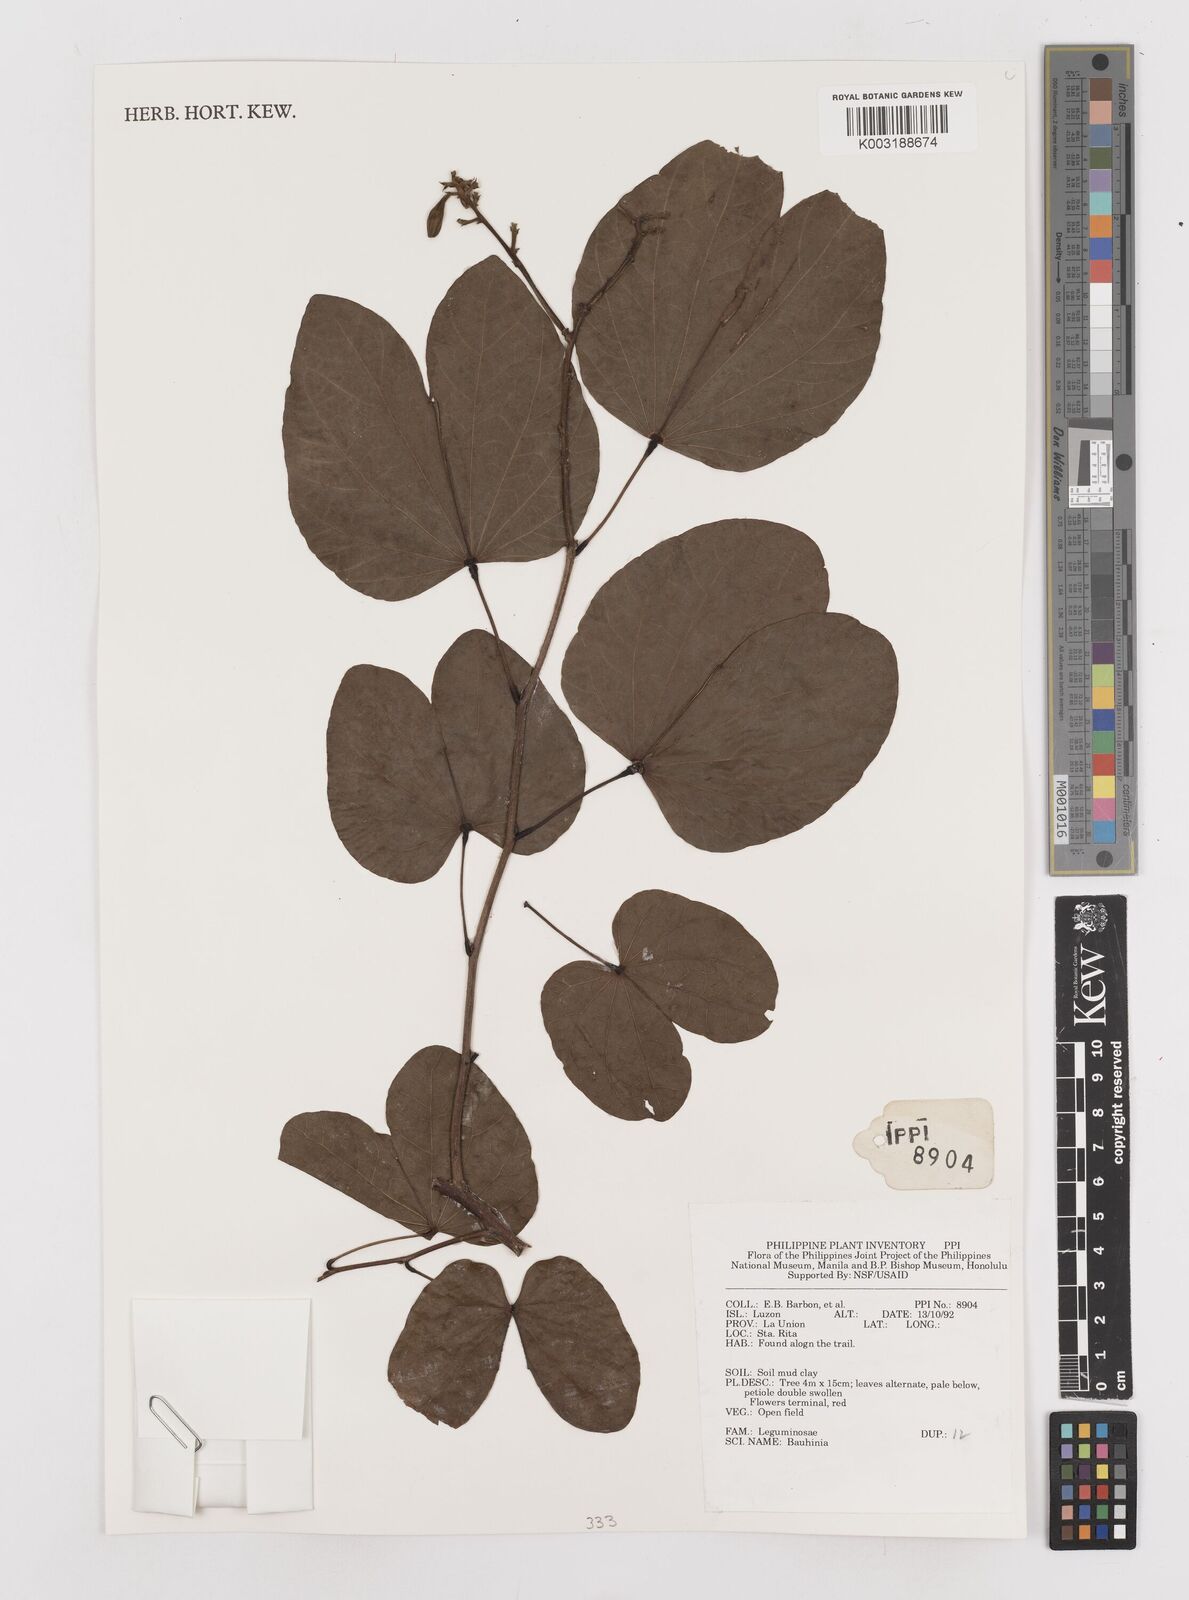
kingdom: Plantae
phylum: Tracheophyta
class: Magnoliopsida
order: Fabales
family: Fabaceae
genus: Bauhinia
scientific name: Bauhinia
